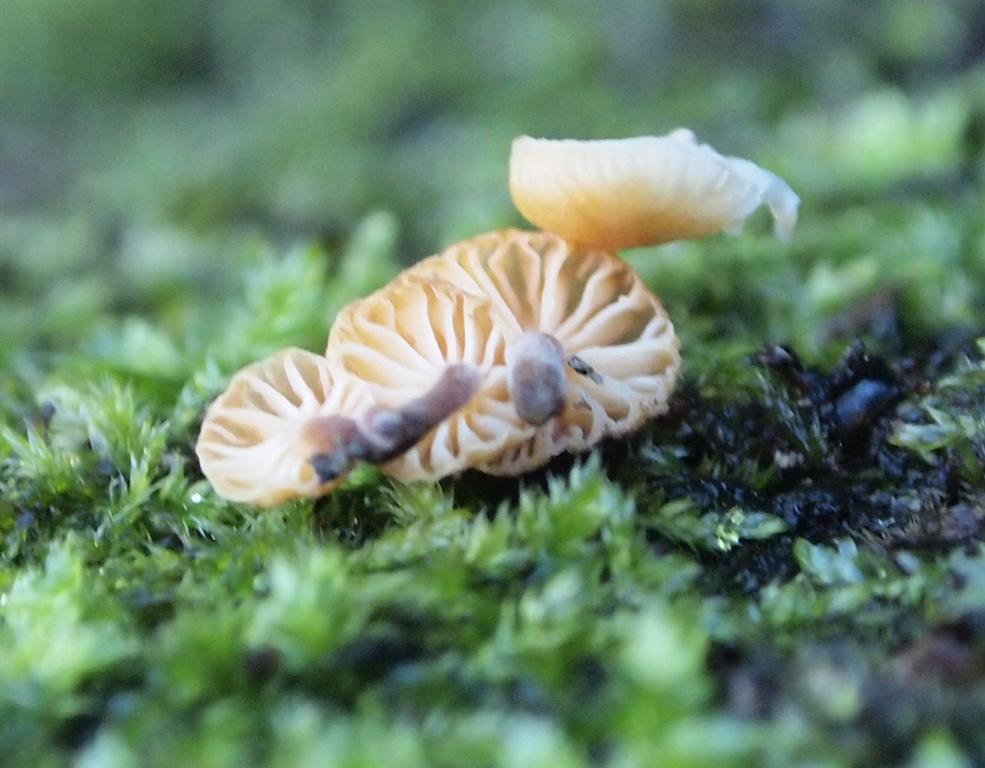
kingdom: Fungi
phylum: Basidiomycota
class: Agaricomycetes
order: Agaricales
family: Physalacriaceae
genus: Flammulina
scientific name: Flammulina velutipes
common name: gul fløjlsfod
